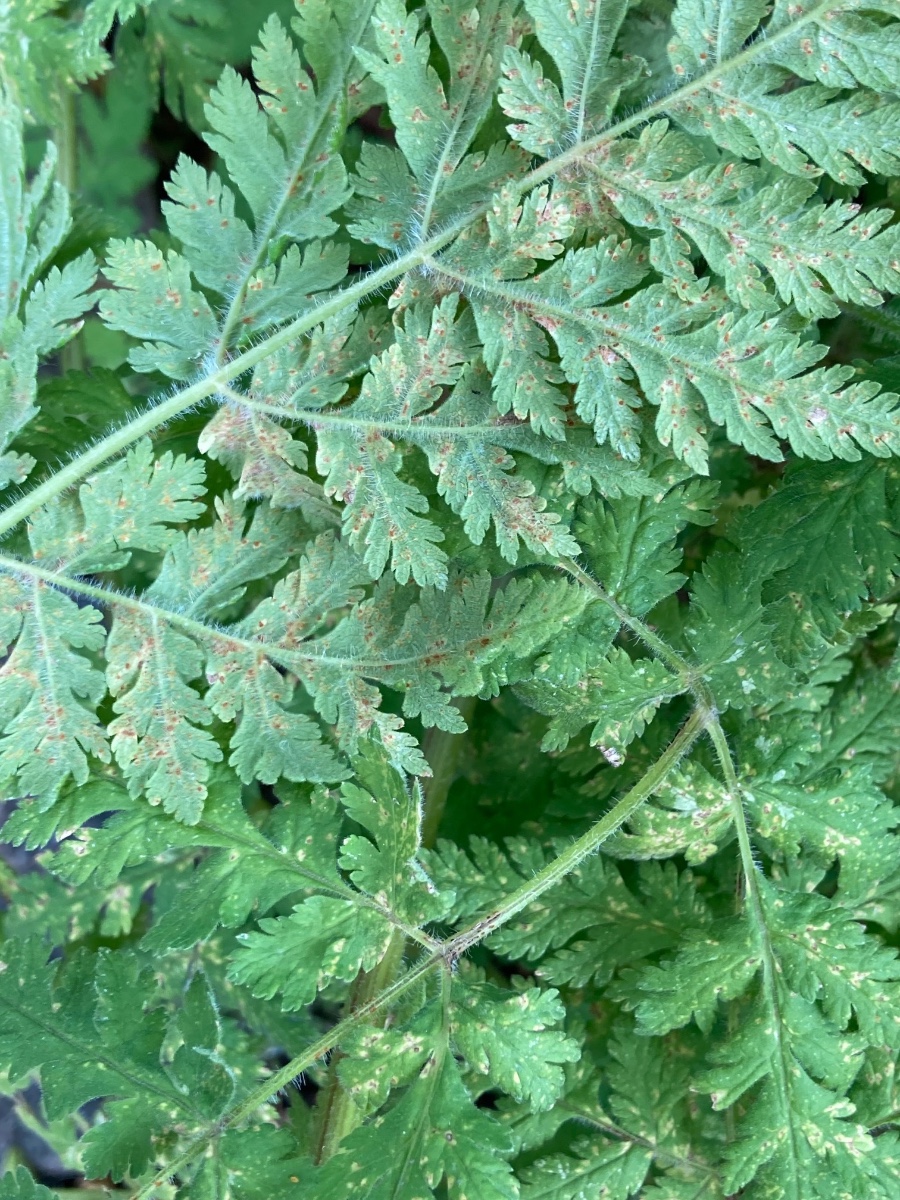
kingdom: Fungi
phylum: Basidiomycota
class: Pucciniomycetes
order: Pucciniales
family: Pucciniaceae
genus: Puccinia
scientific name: Puccinia chaerophylli
